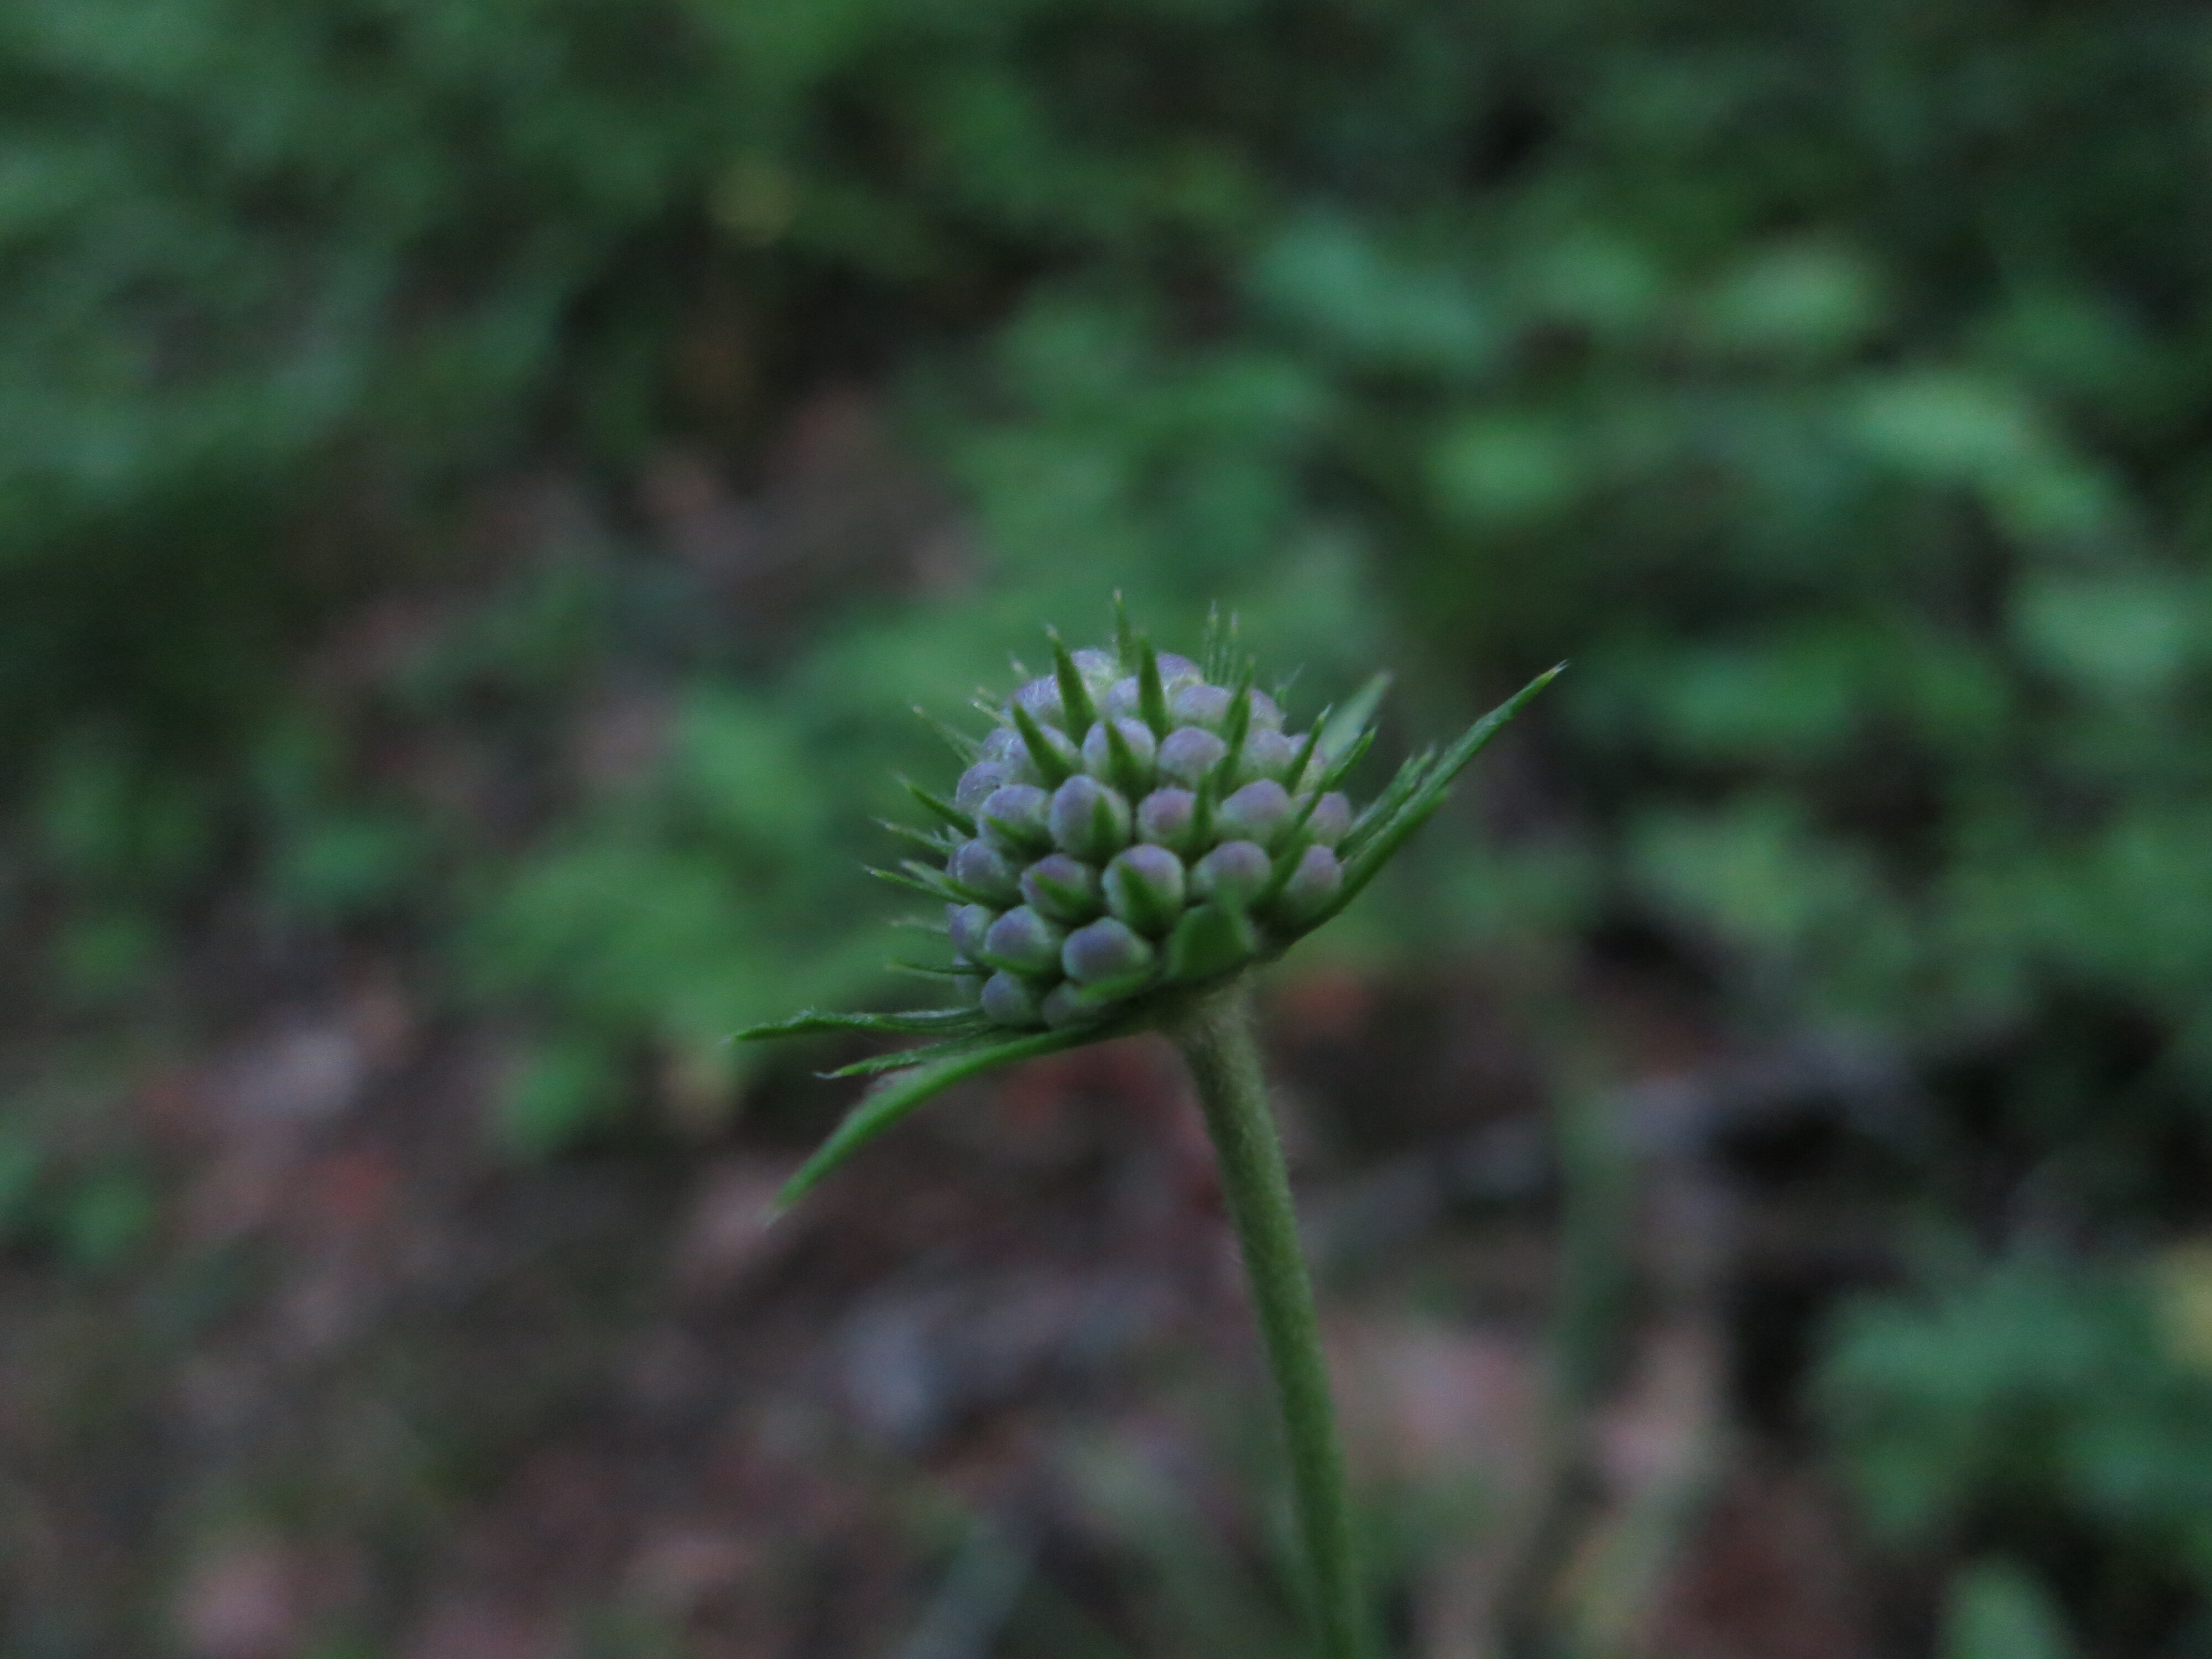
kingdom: Plantae
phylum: Tracheophyta
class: Magnoliopsida
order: Dipsacales
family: Caprifoliaceae
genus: Succisa
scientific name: Succisa pratensis
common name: Devil's-bit
